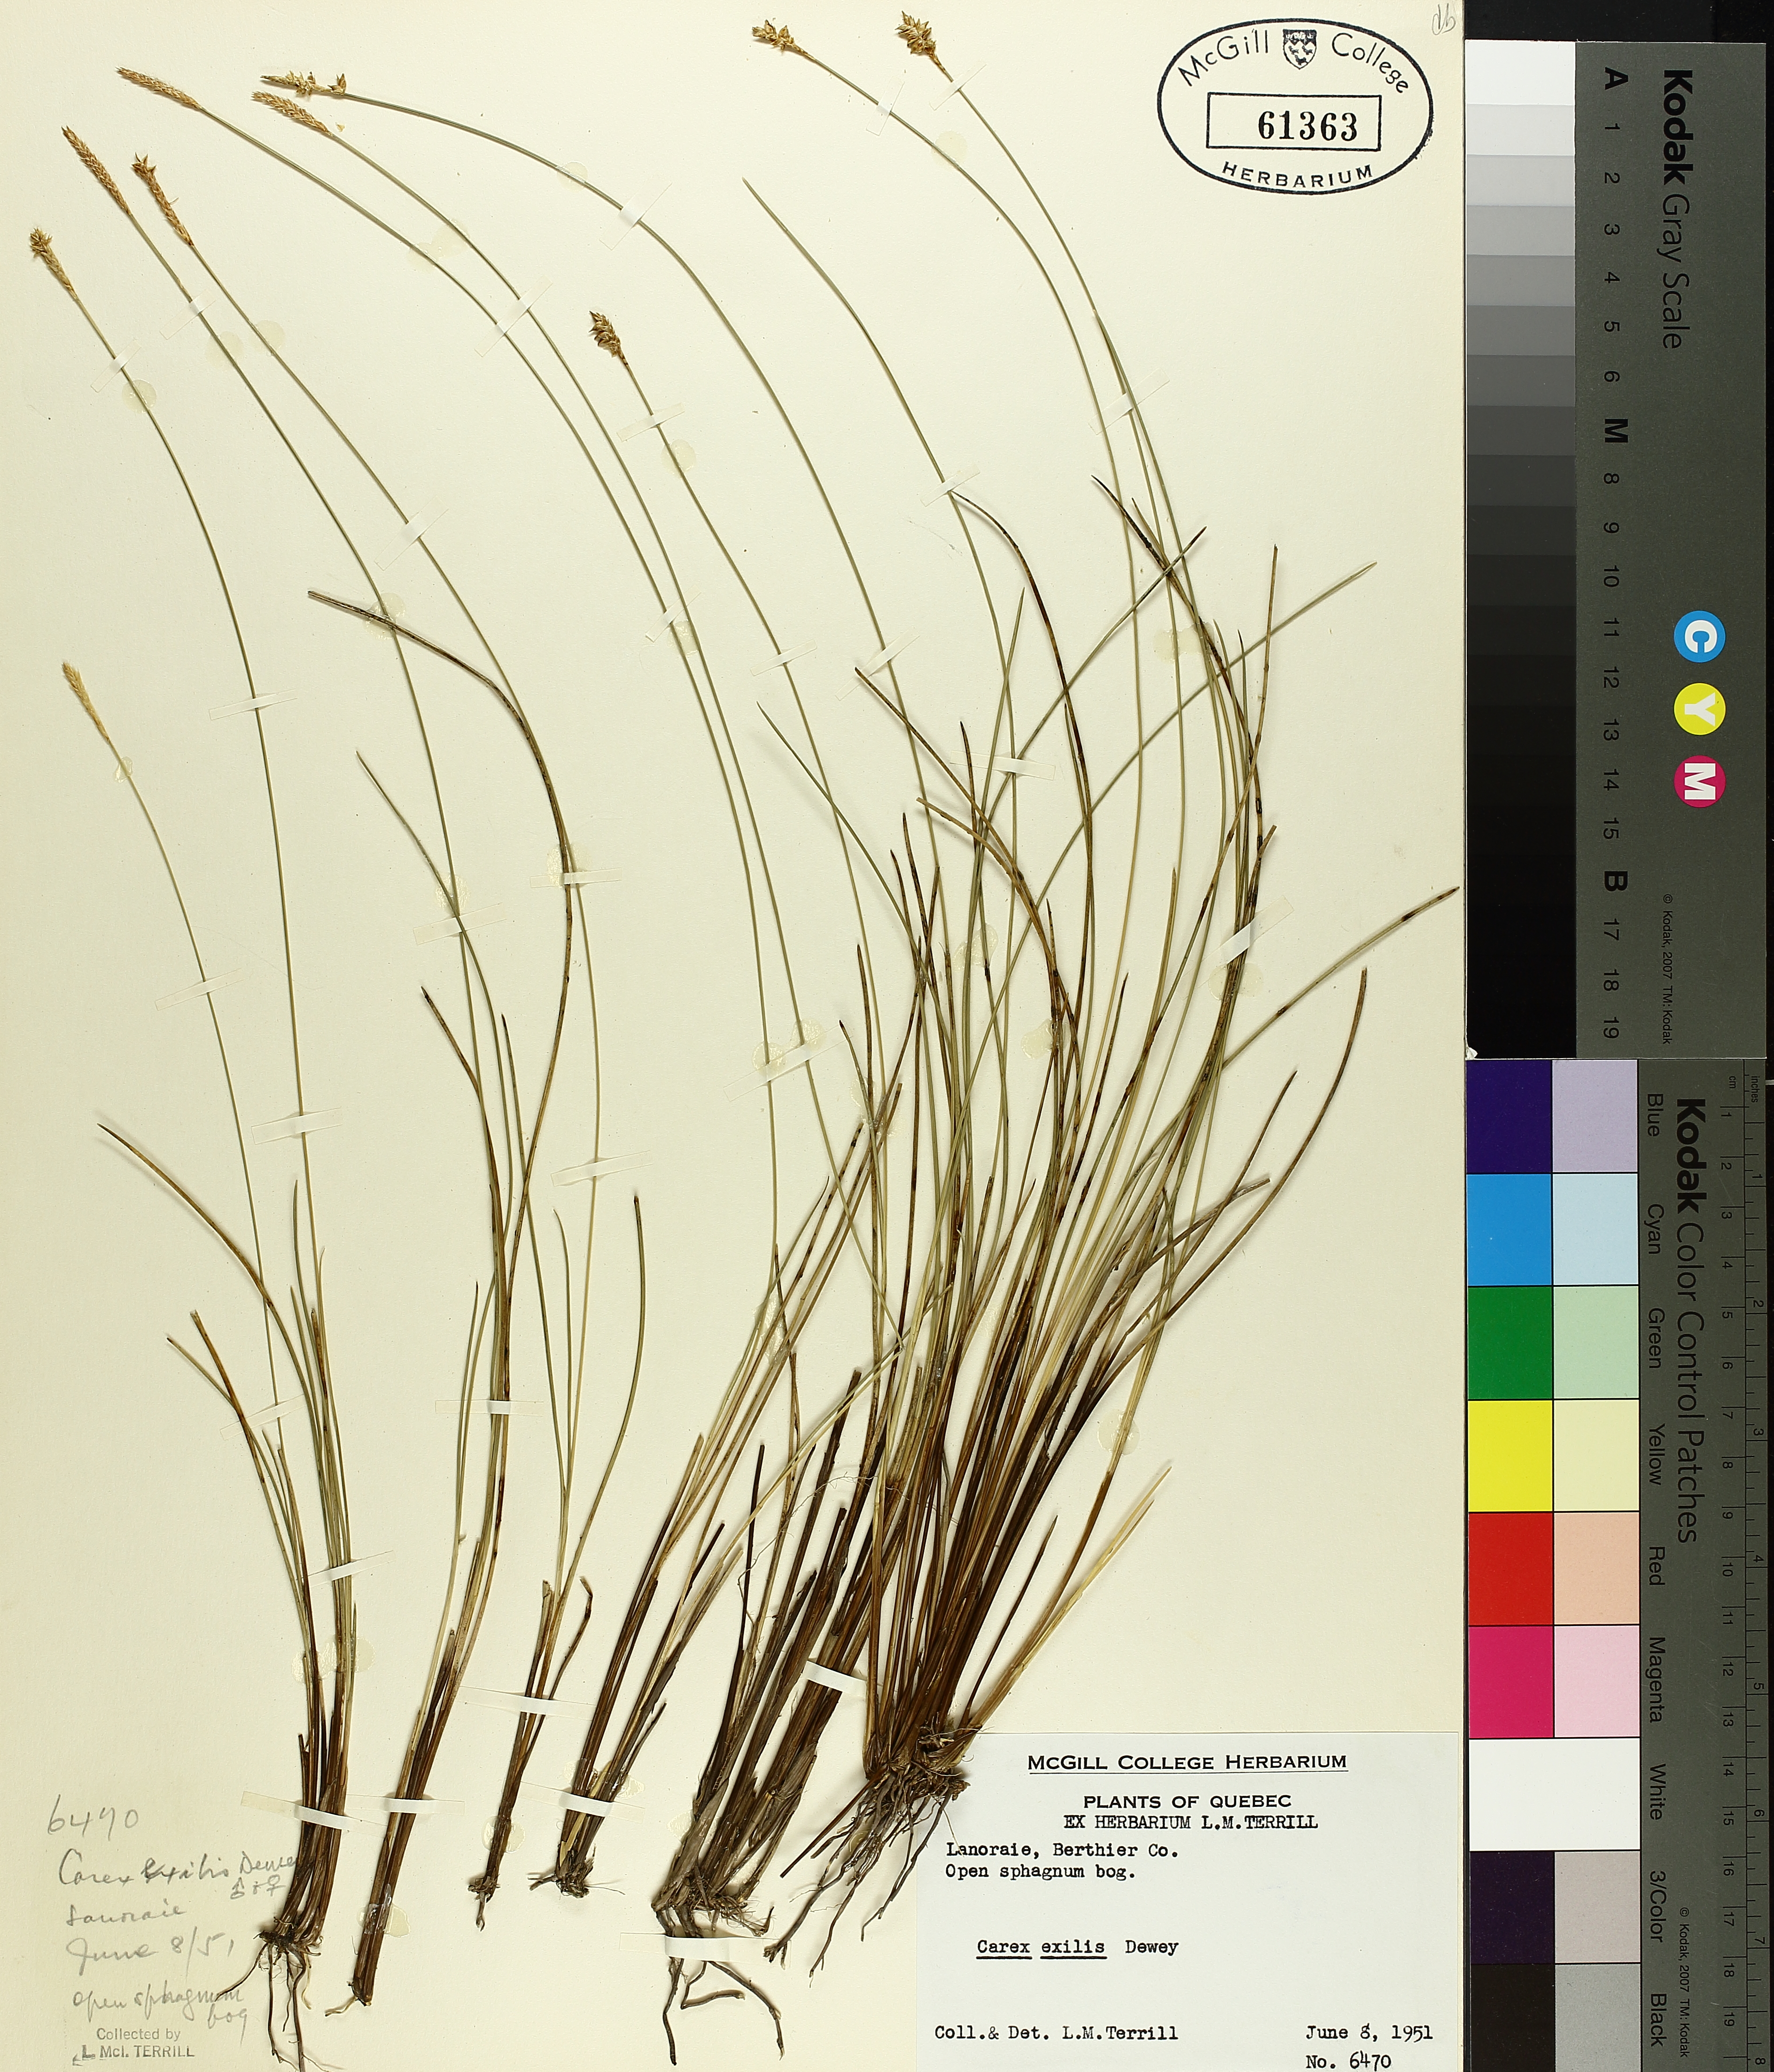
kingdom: Plantae
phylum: Tracheophyta
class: Liliopsida
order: Poales
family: Cyperaceae
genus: Carex
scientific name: Carex exilis
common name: Coastal sedge
